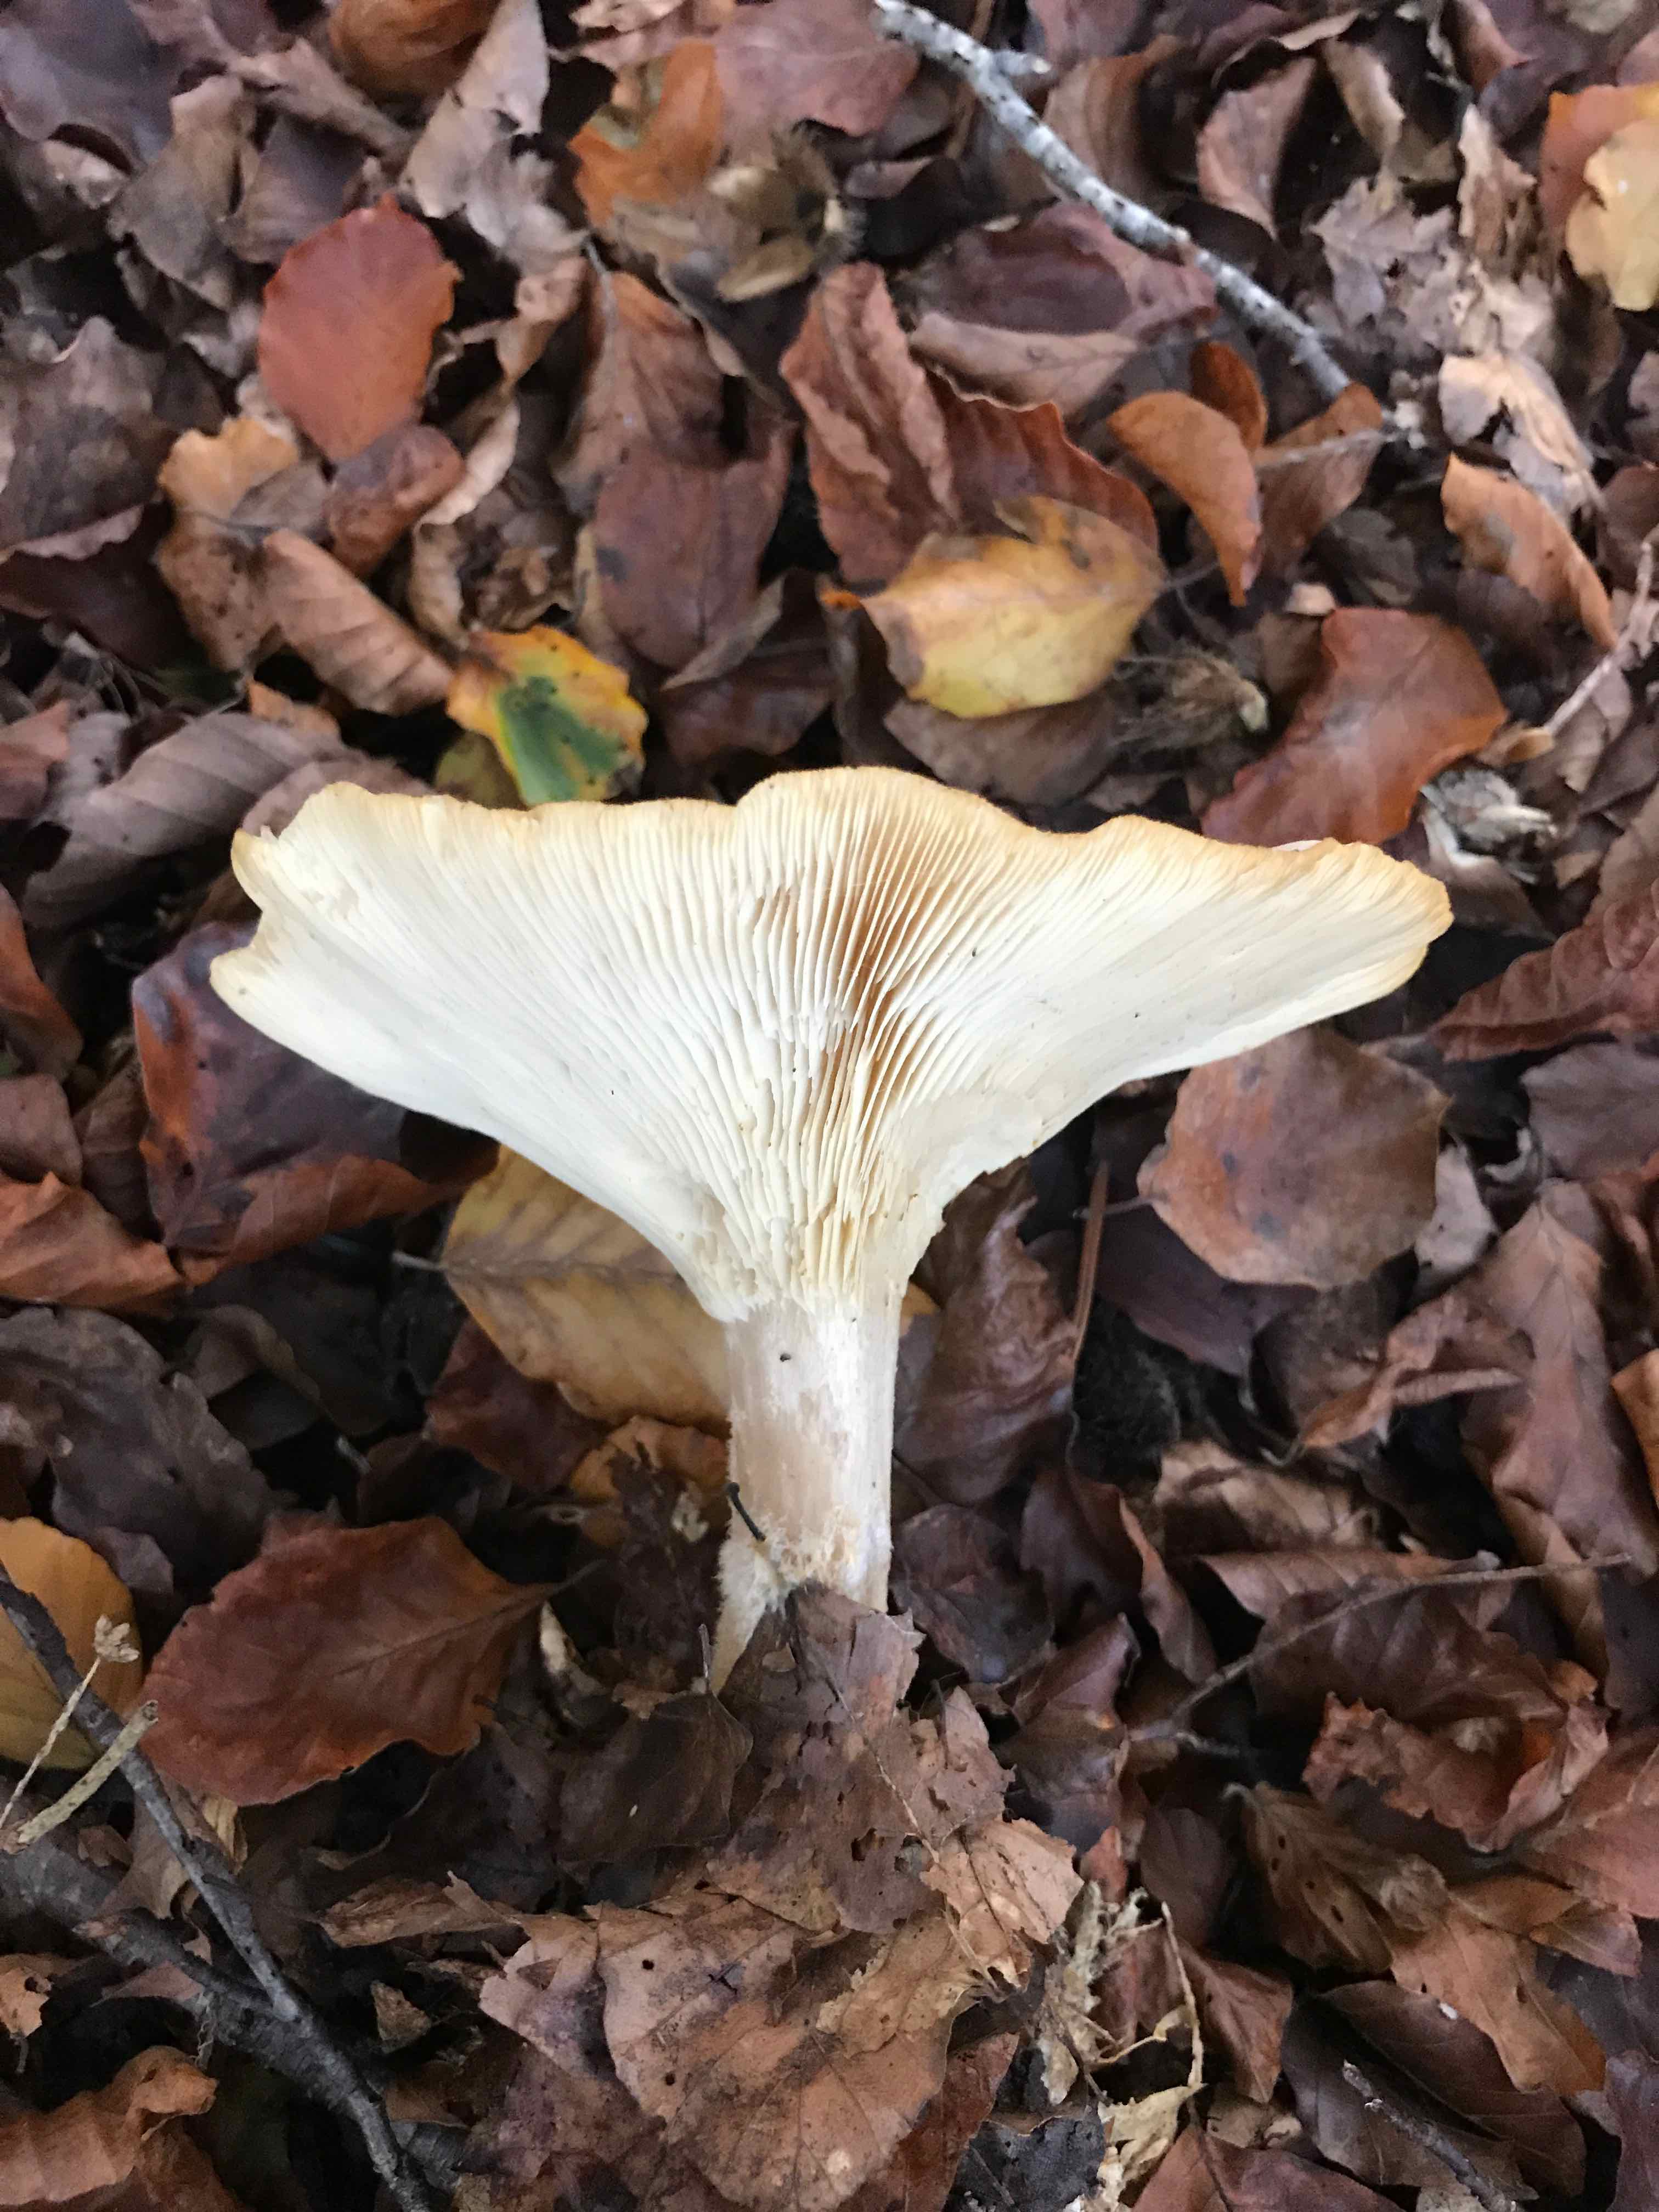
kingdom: Fungi
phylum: Basidiomycota
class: Agaricomycetes
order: Agaricales
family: Tricholomataceae
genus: Clitocybe
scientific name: Clitocybe nebularis
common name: tåge-tragthat
